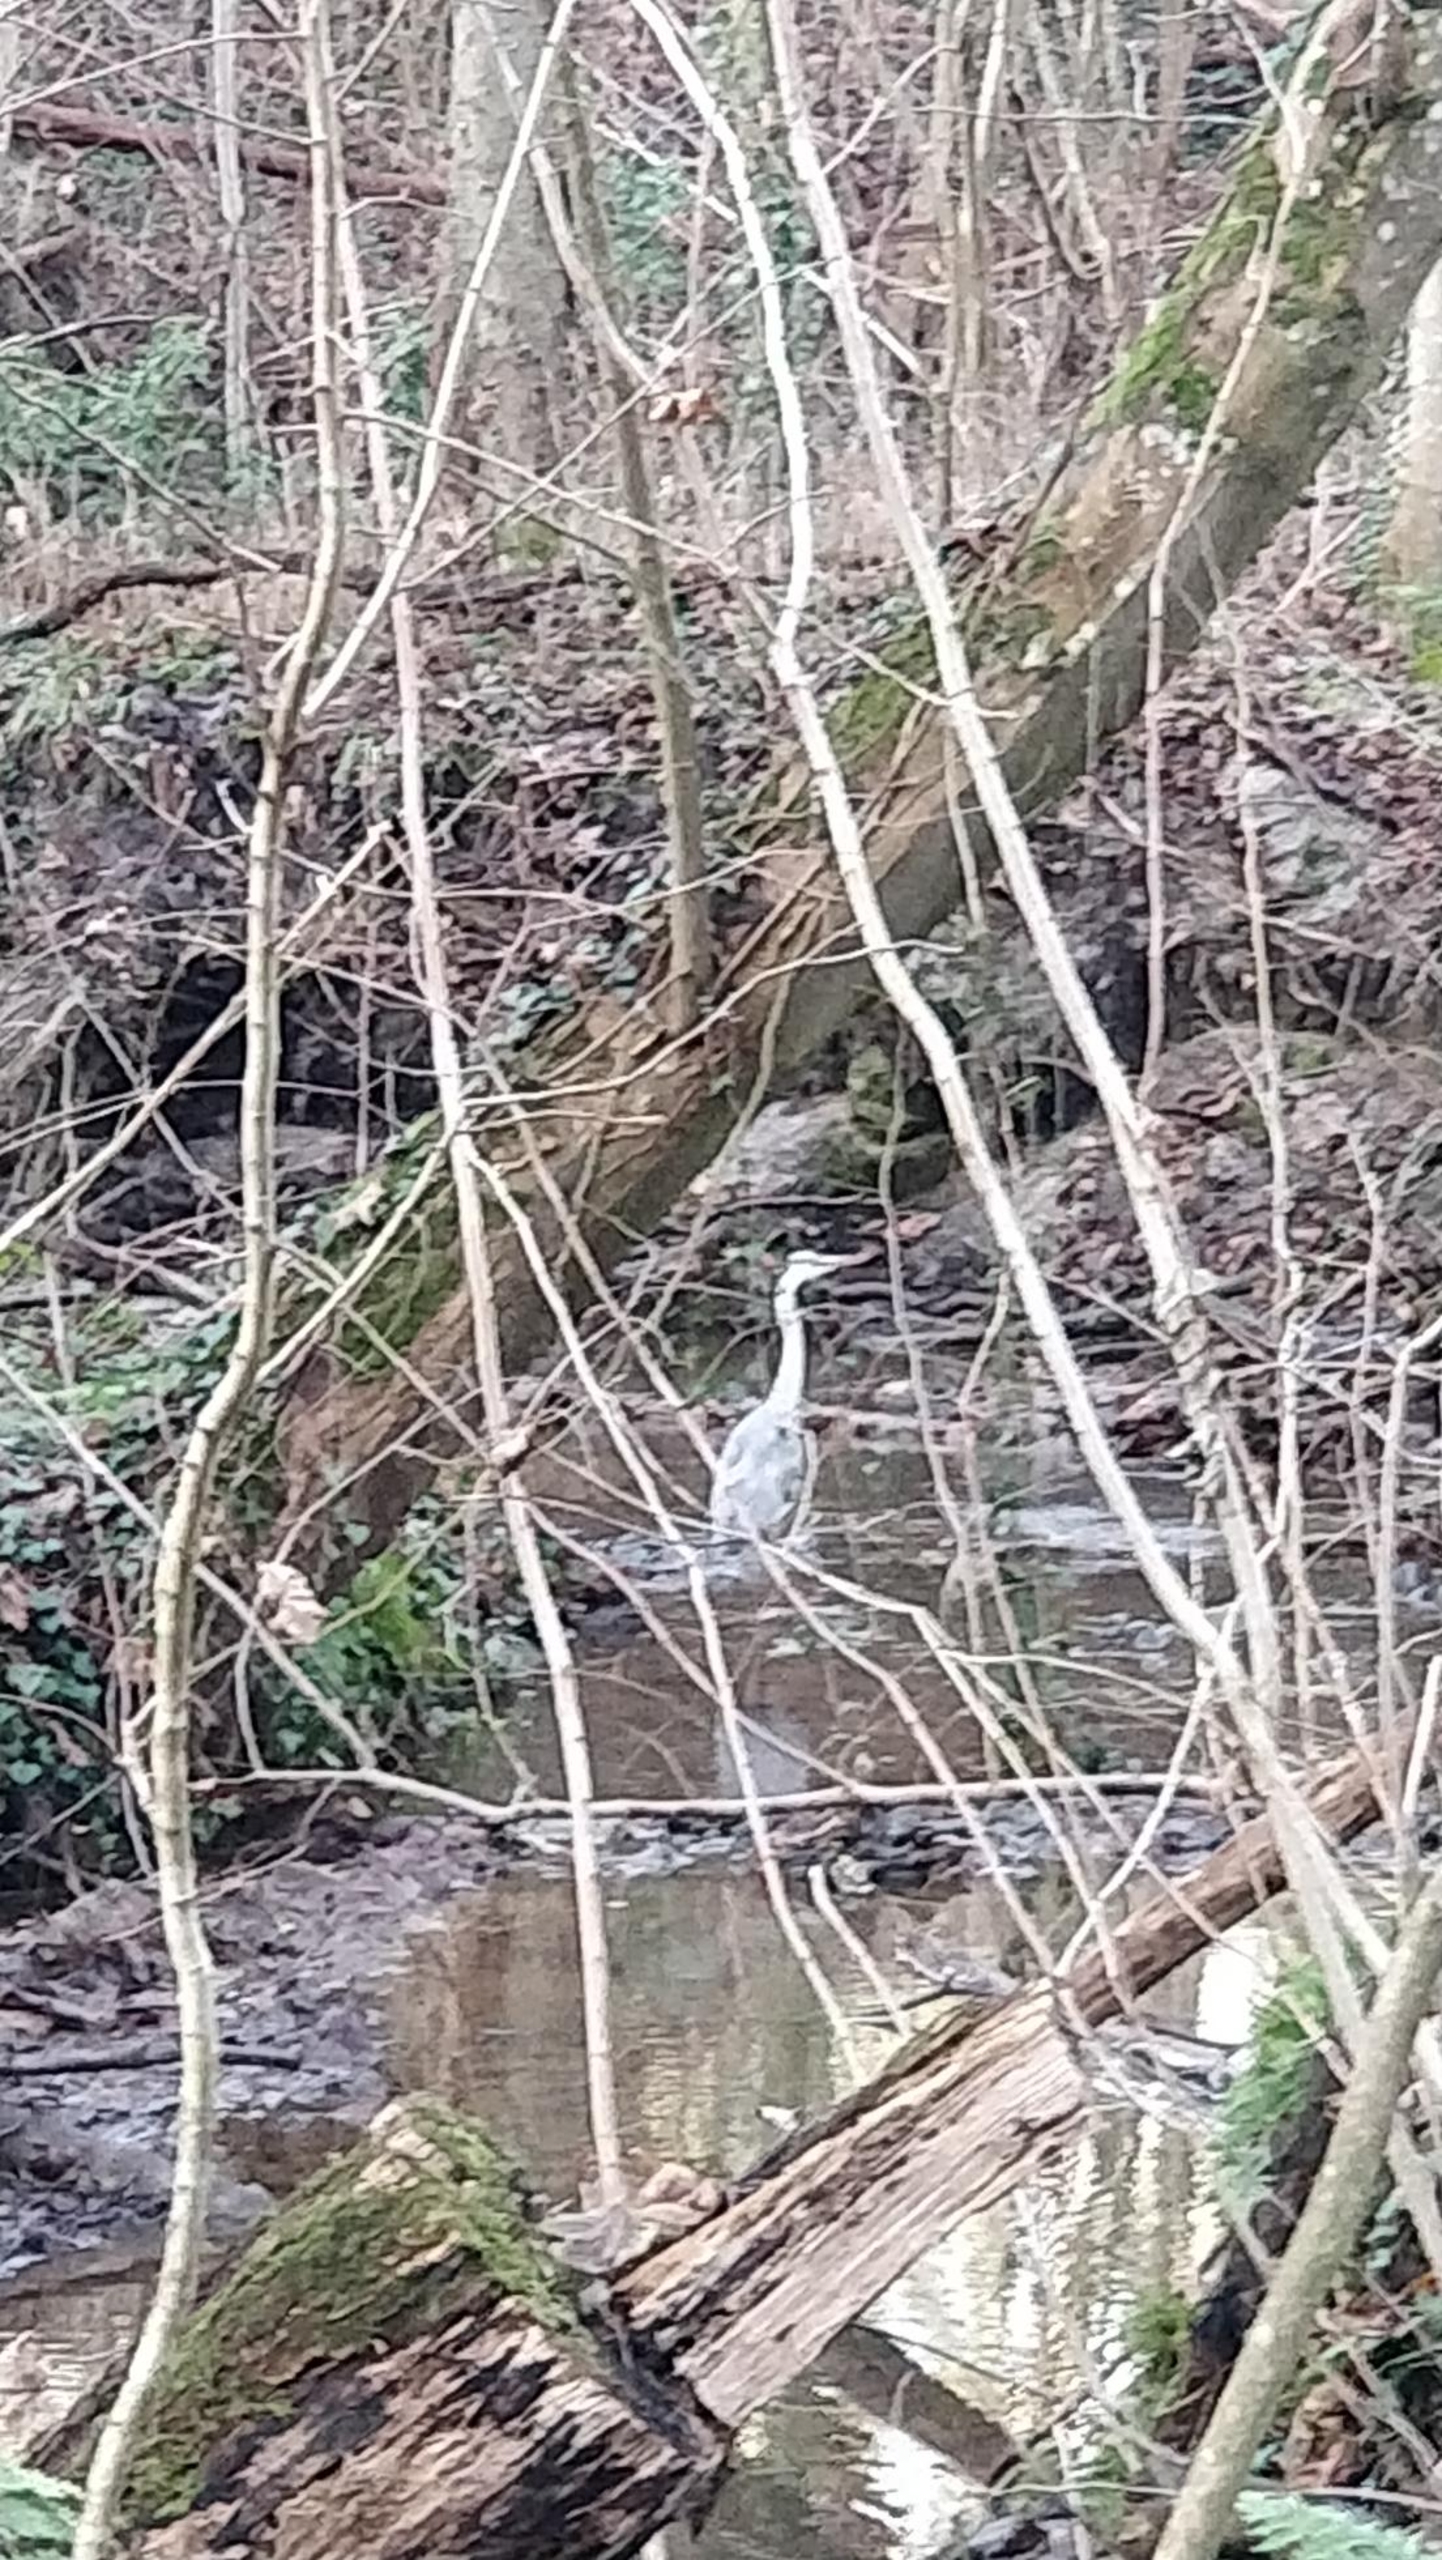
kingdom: Animalia
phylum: Chordata
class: Aves
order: Pelecaniformes
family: Ardeidae
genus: Ardea
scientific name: Ardea cinerea
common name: Fiskehejre
